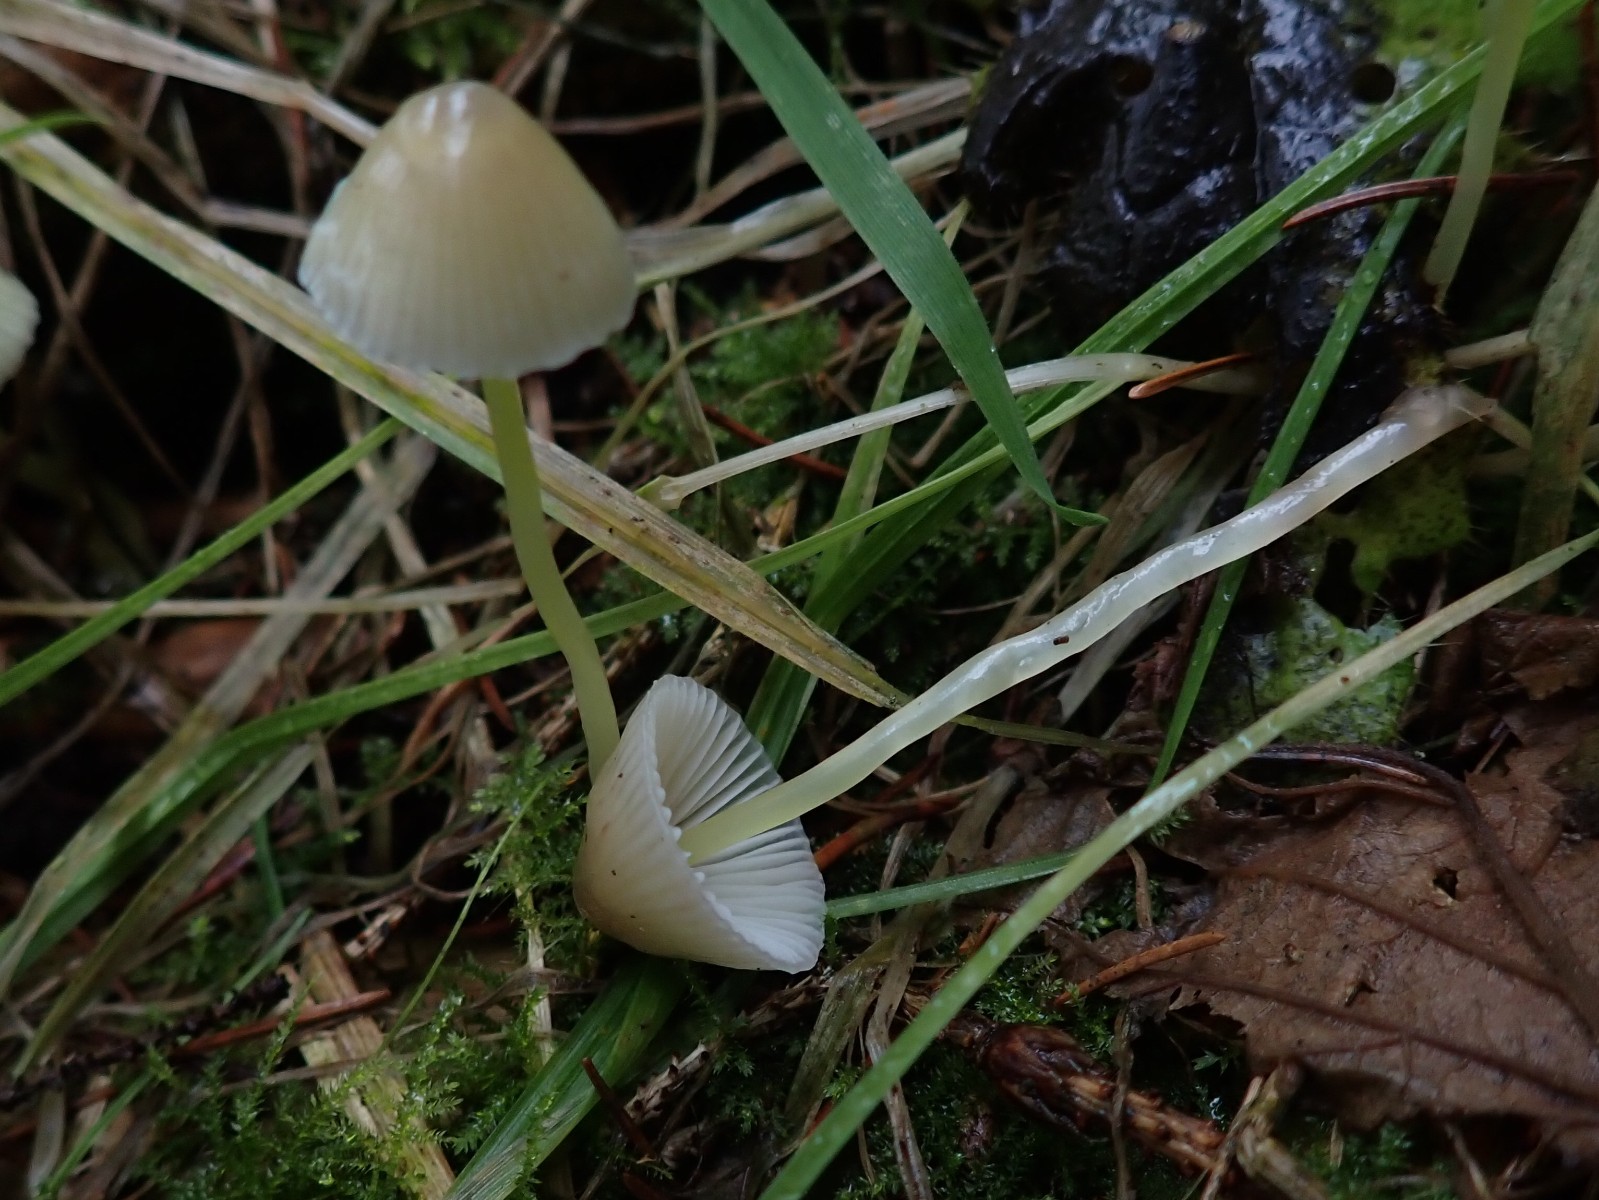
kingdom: Fungi
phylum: Basidiomycota
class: Agaricomycetes
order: Agaricales
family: Mycenaceae
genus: Mycena
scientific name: Mycena epipterygia
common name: gulstokket huesvamp
